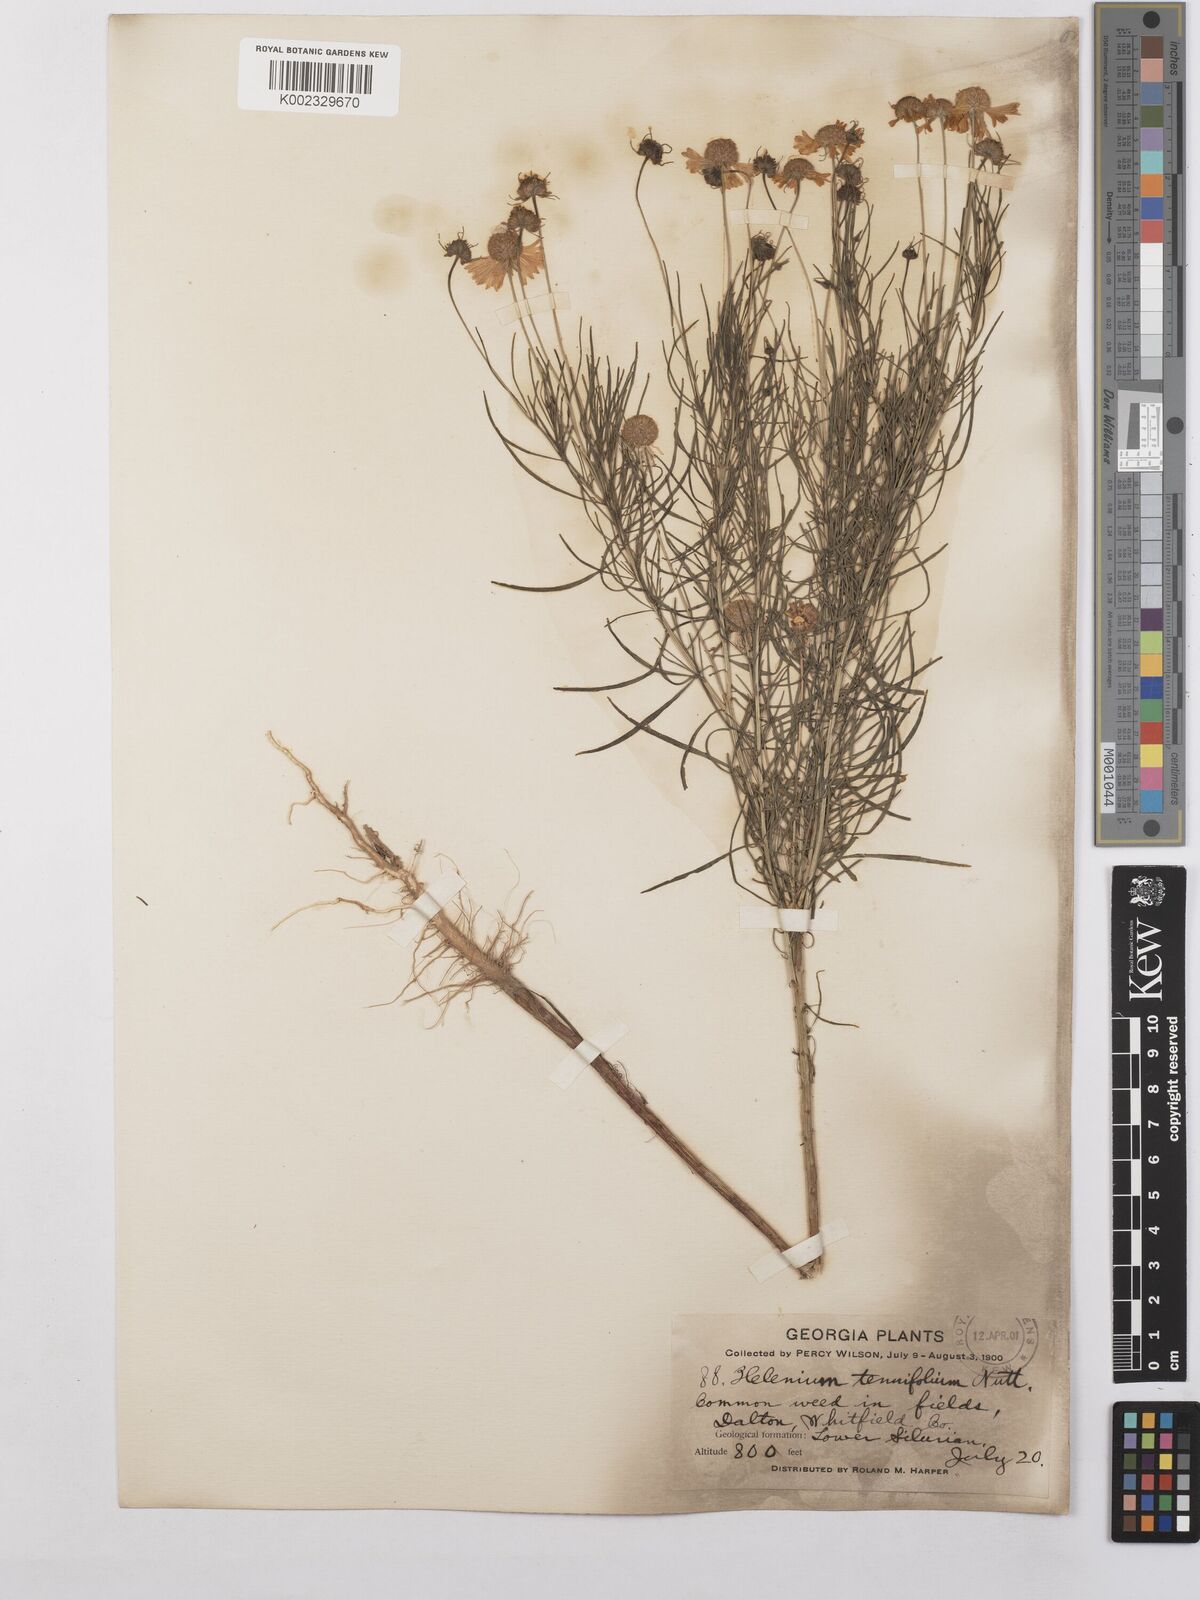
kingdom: Plantae
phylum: Tracheophyta
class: Magnoliopsida
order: Asterales
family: Asteraceae
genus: Helenium
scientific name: Helenium amarum
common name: Bitter sneezeweed
